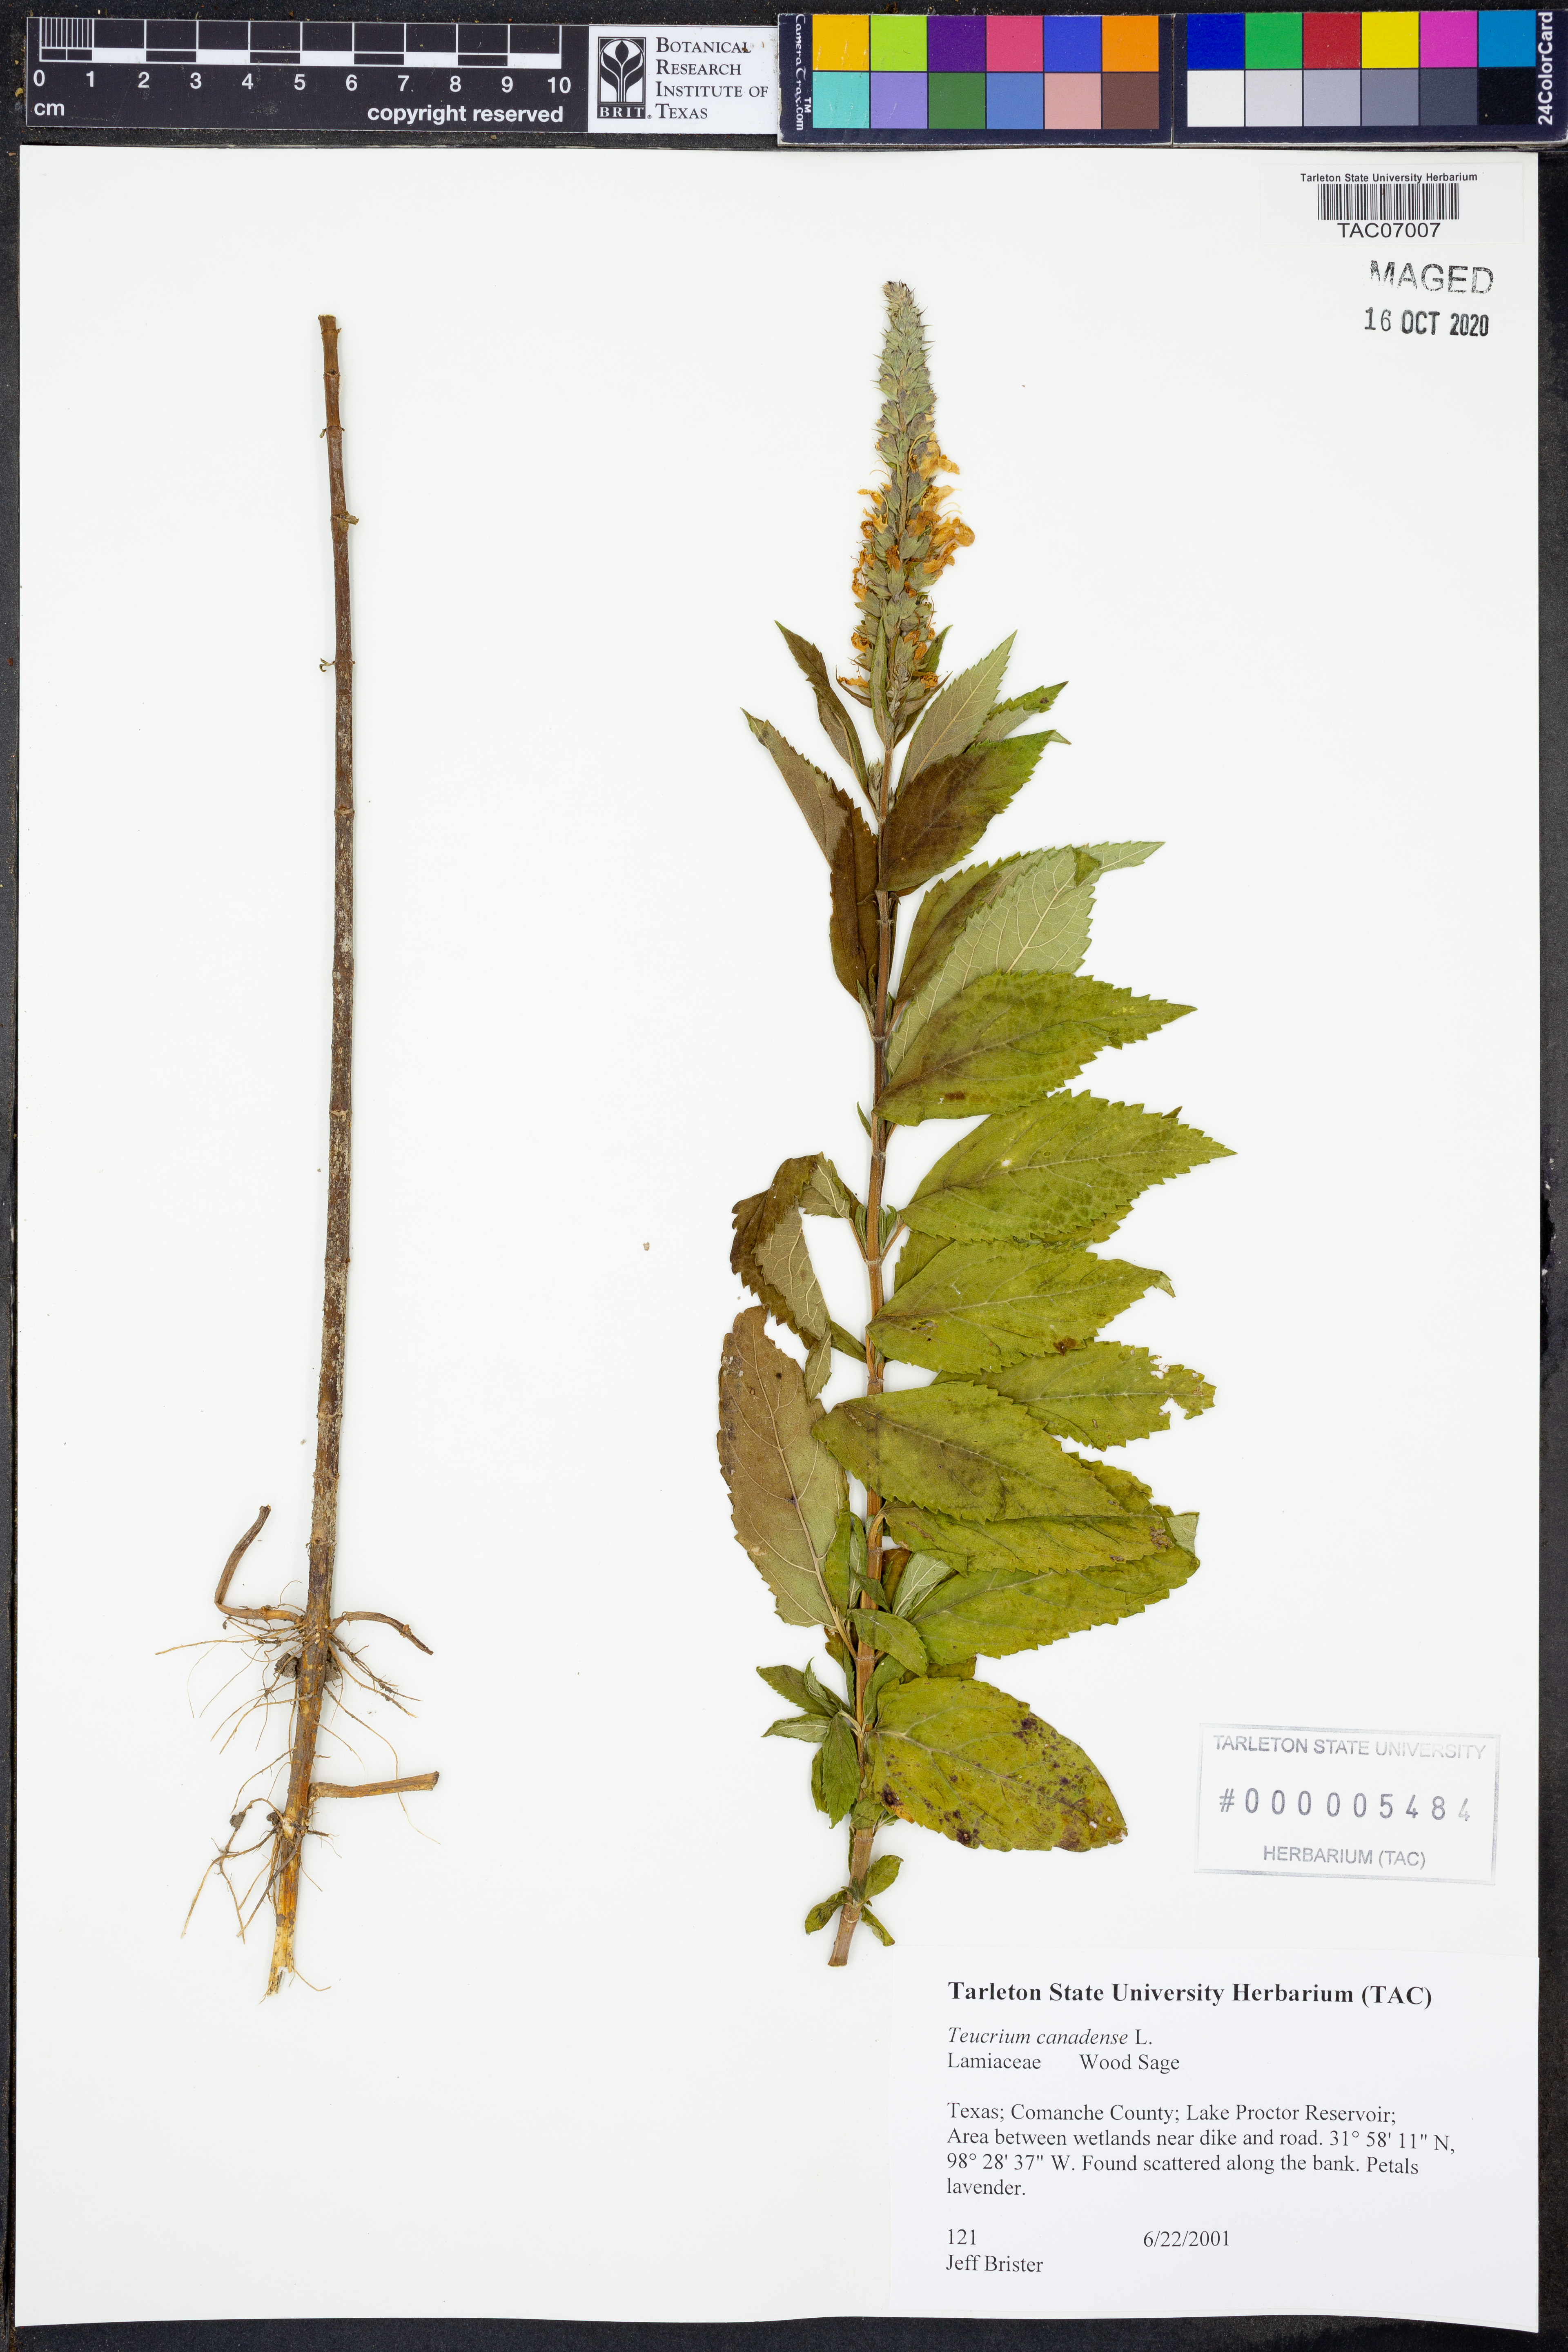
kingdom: Plantae
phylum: Tracheophyta
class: Magnoliopsida
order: Lamiales
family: Lamiaceae
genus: Teucrium
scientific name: Teucrium canadense
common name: American germander
